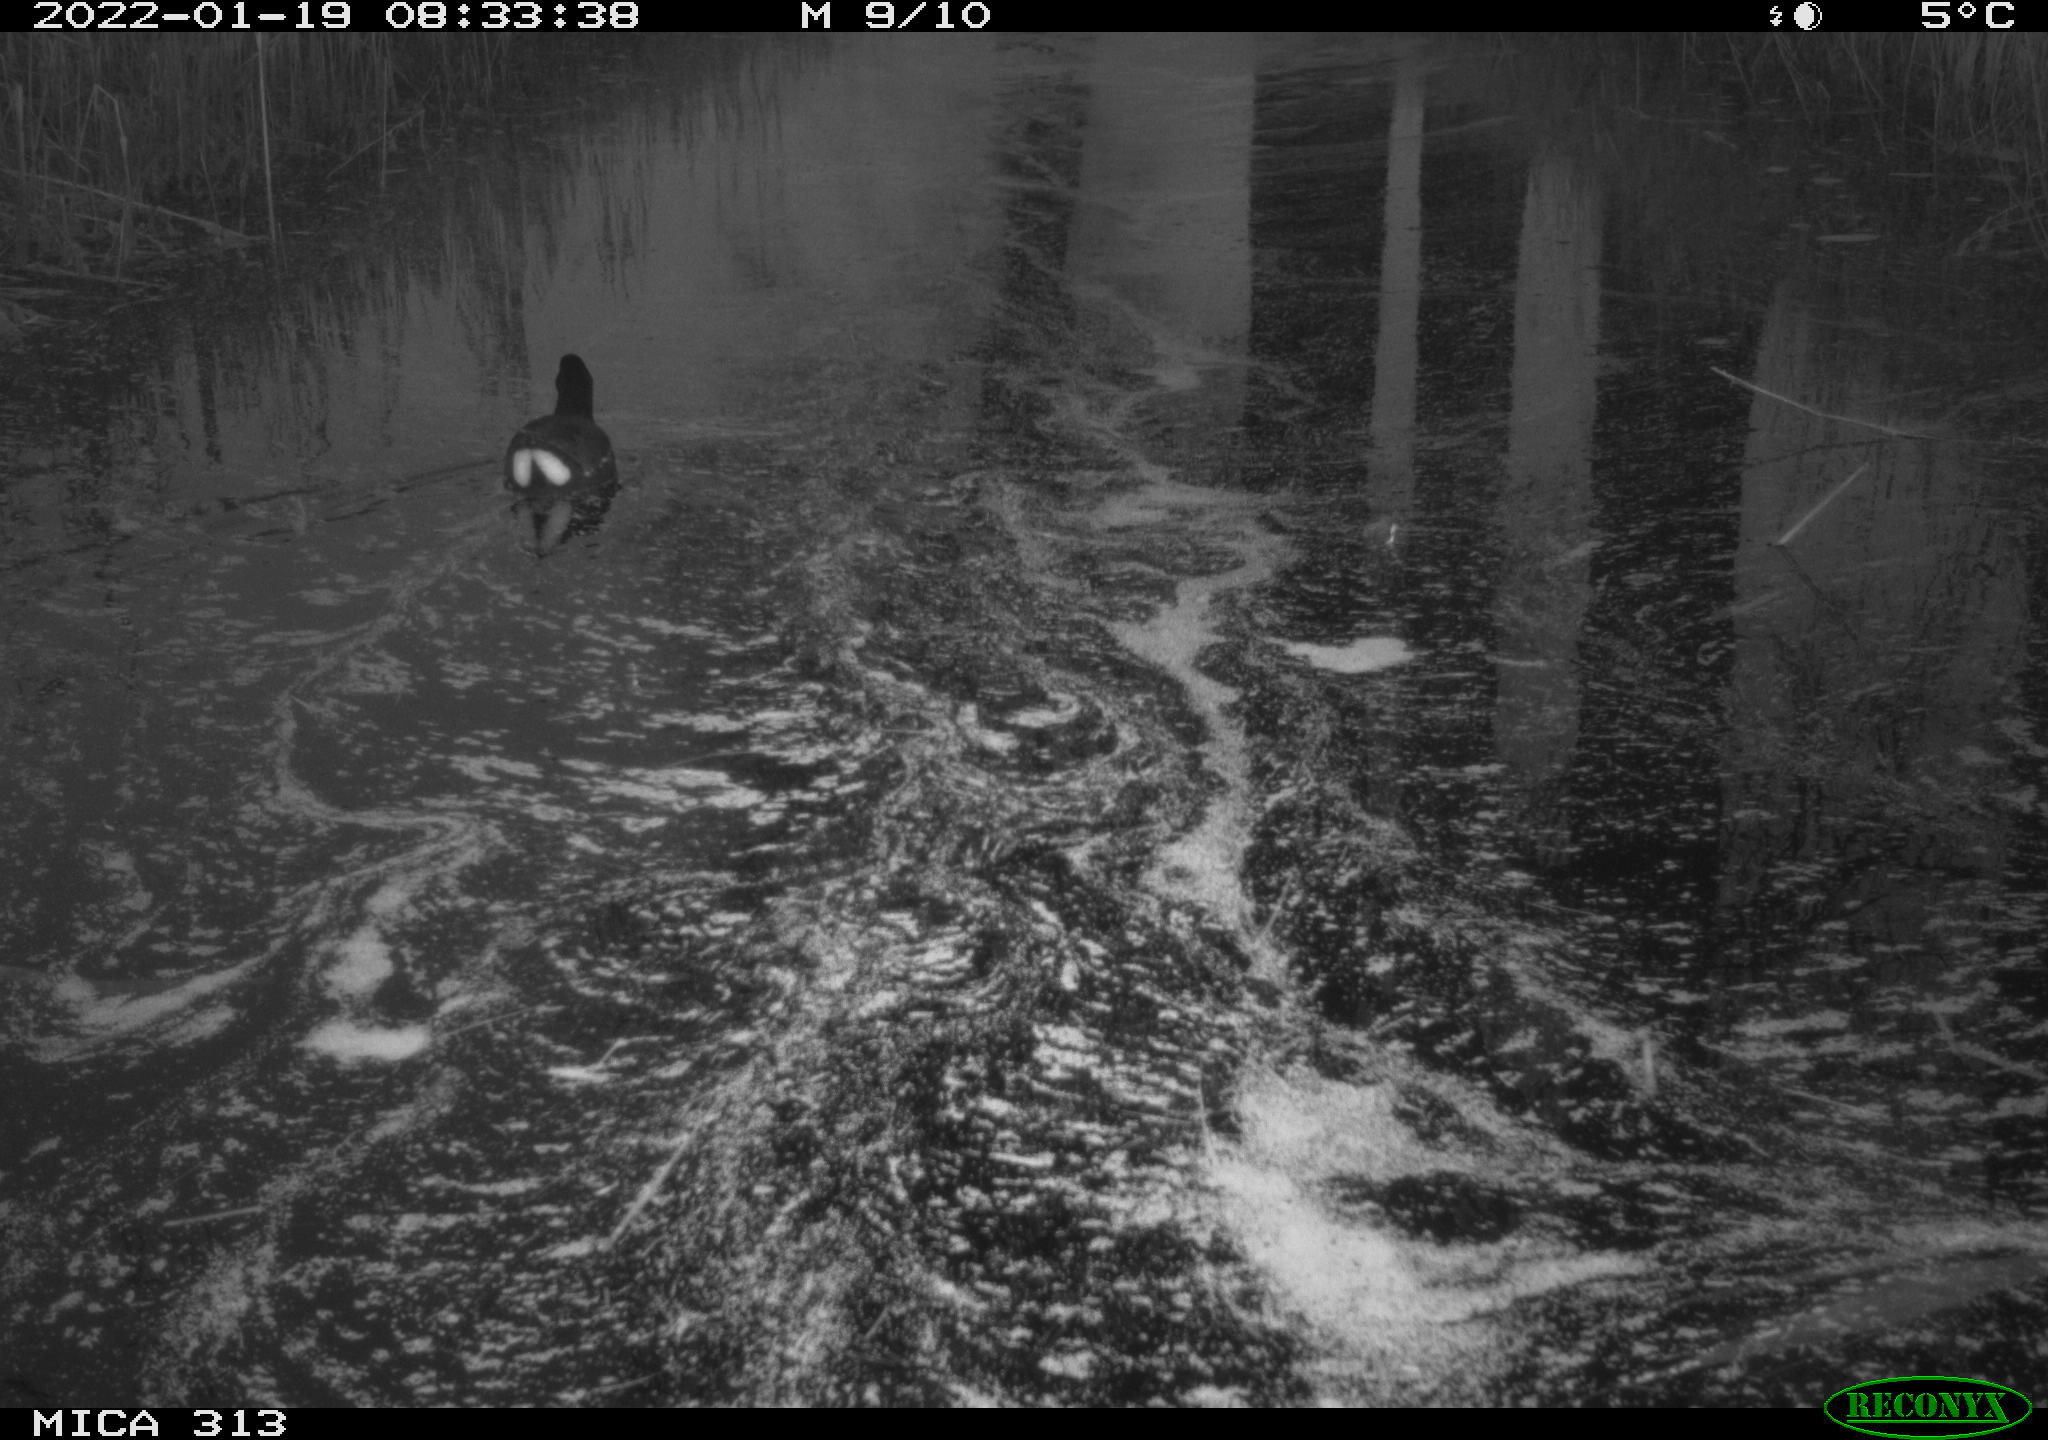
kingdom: Animalia
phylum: Chordata
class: Aves
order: Gruiformes
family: Rallidae
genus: Gallinula
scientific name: Gallinula chloropus
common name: Common moorhen
